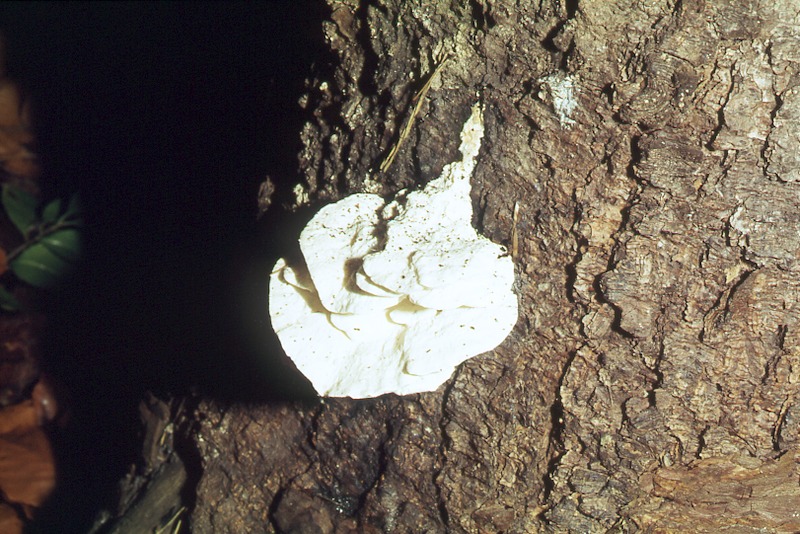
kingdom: Plantae
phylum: Tracheophyta
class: Pinopsida
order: Pinales
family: Pinaceae
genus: Picea
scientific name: Picea abies
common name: Norway spruce
